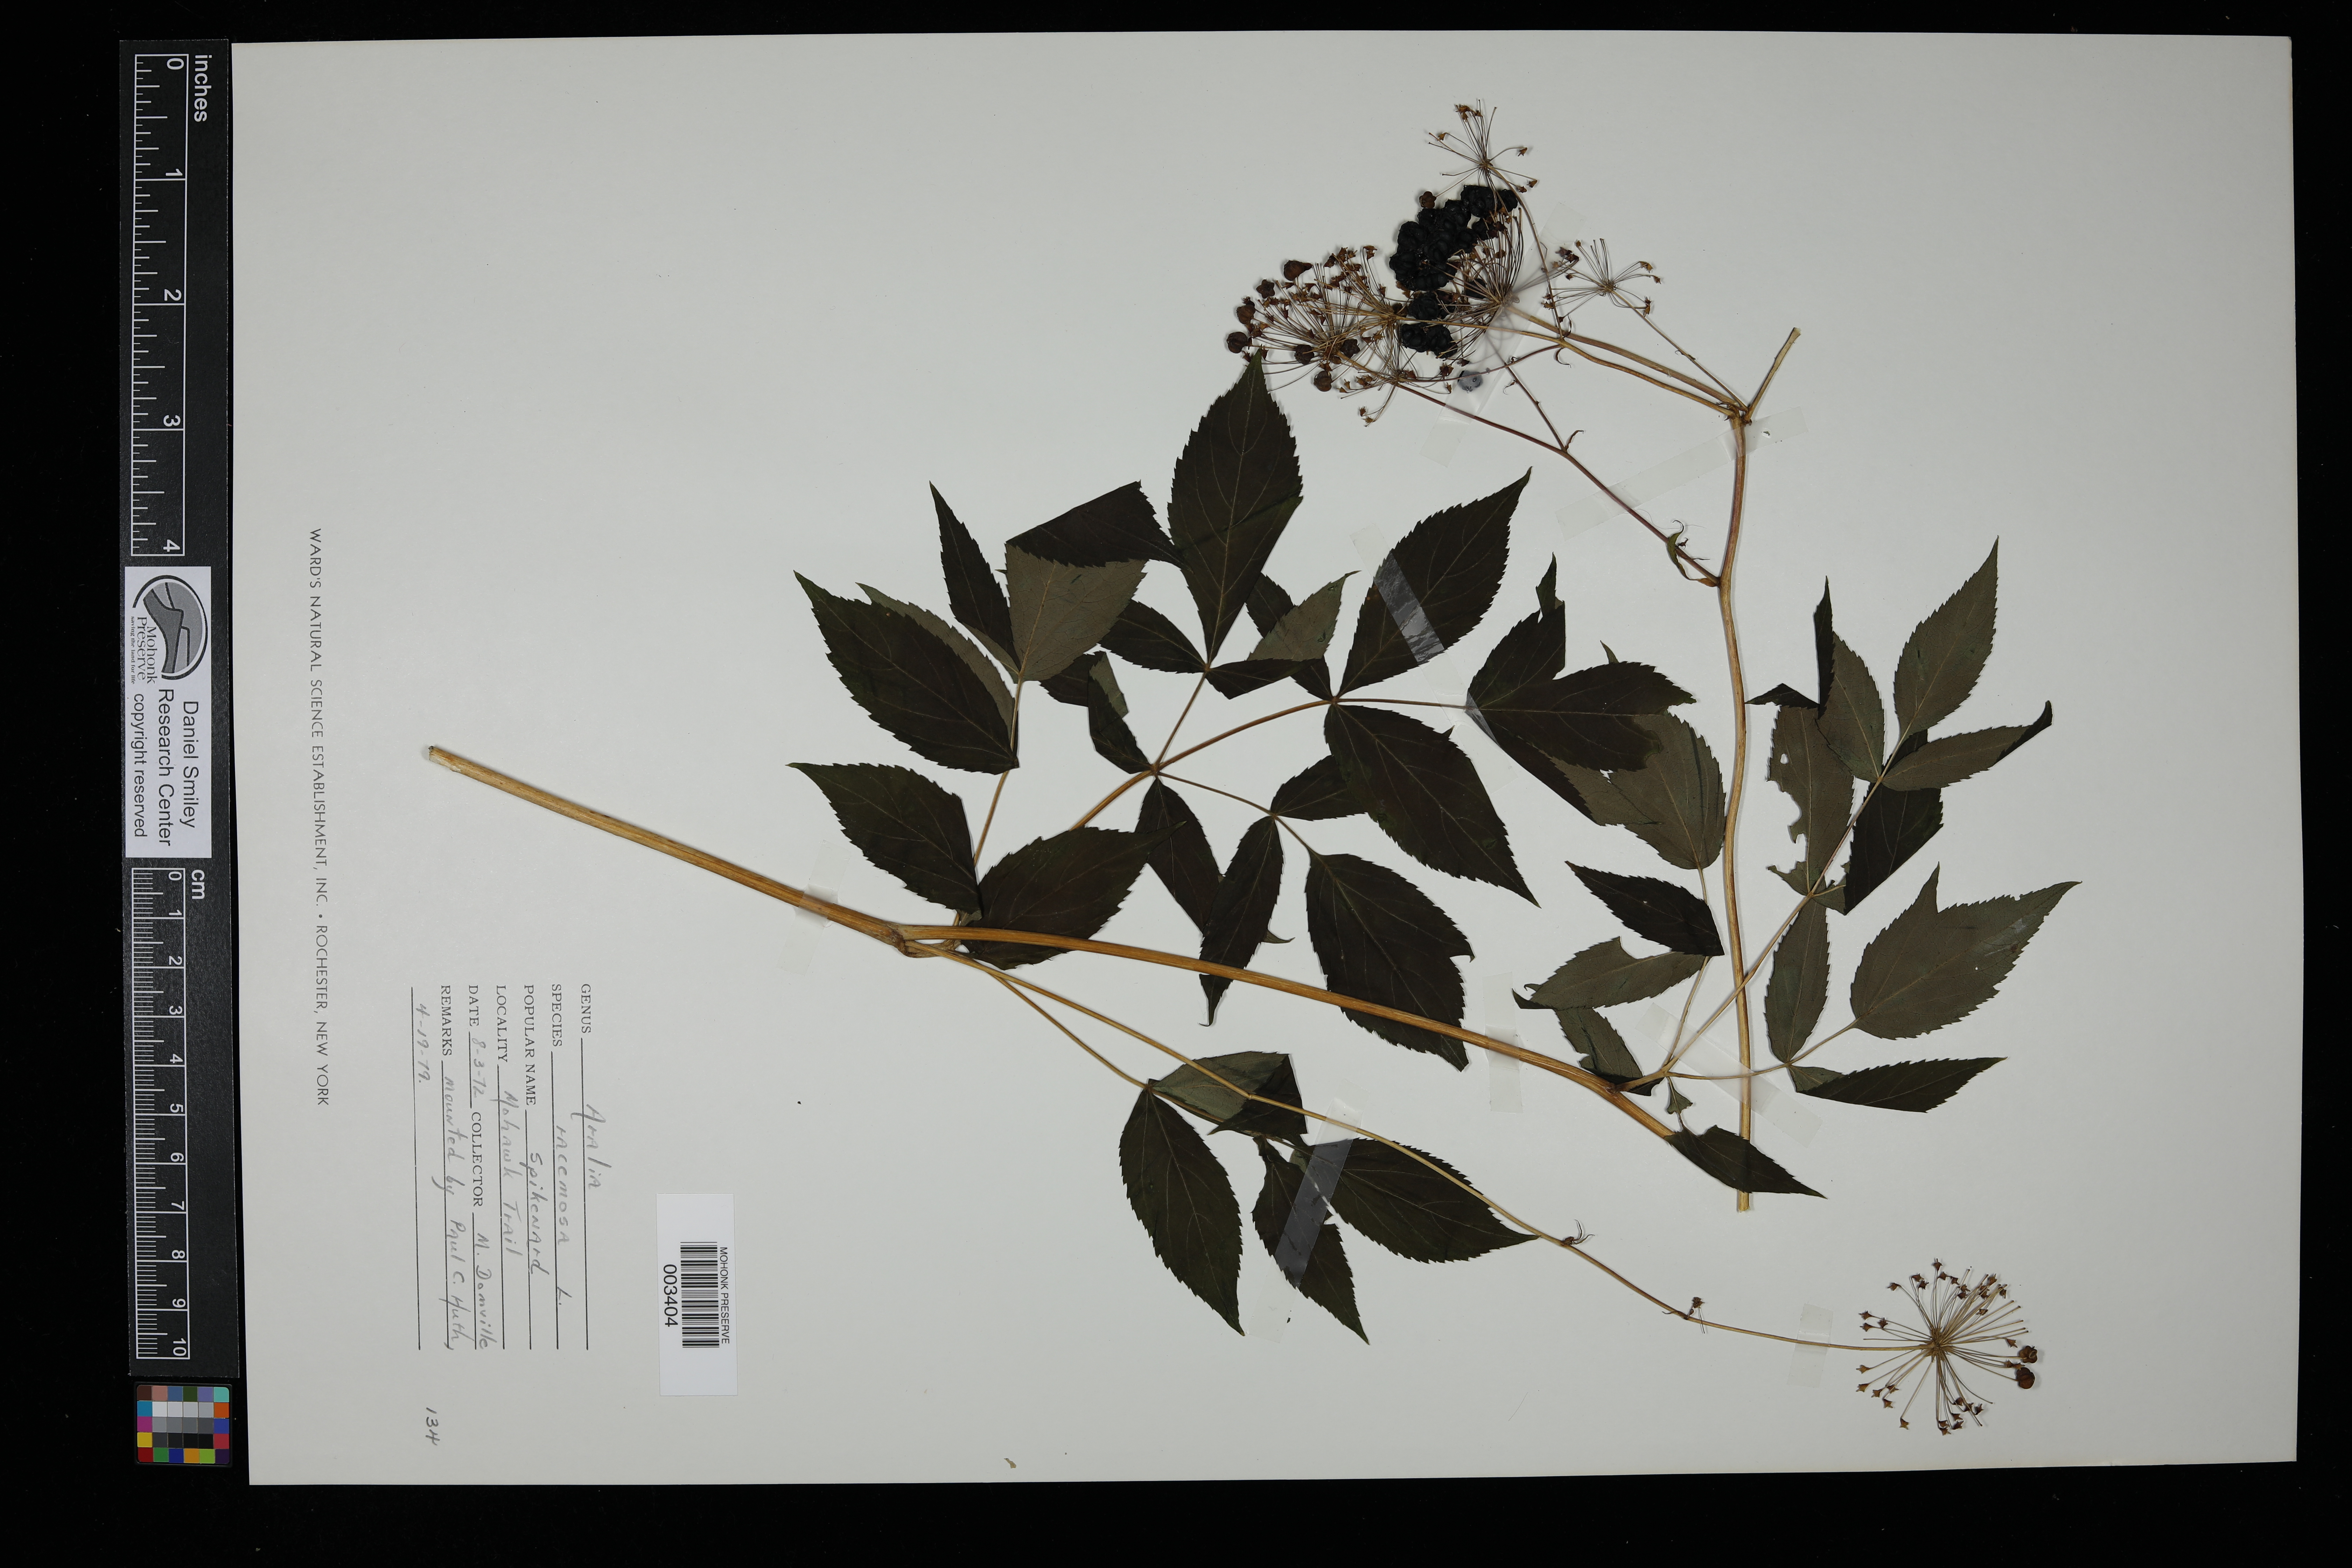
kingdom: Plantae
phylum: Tracheophyta
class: Magnoliopsida
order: Apiales
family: Araliaceae
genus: Aralia
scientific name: Aralia racemosa
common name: American-spikenard
